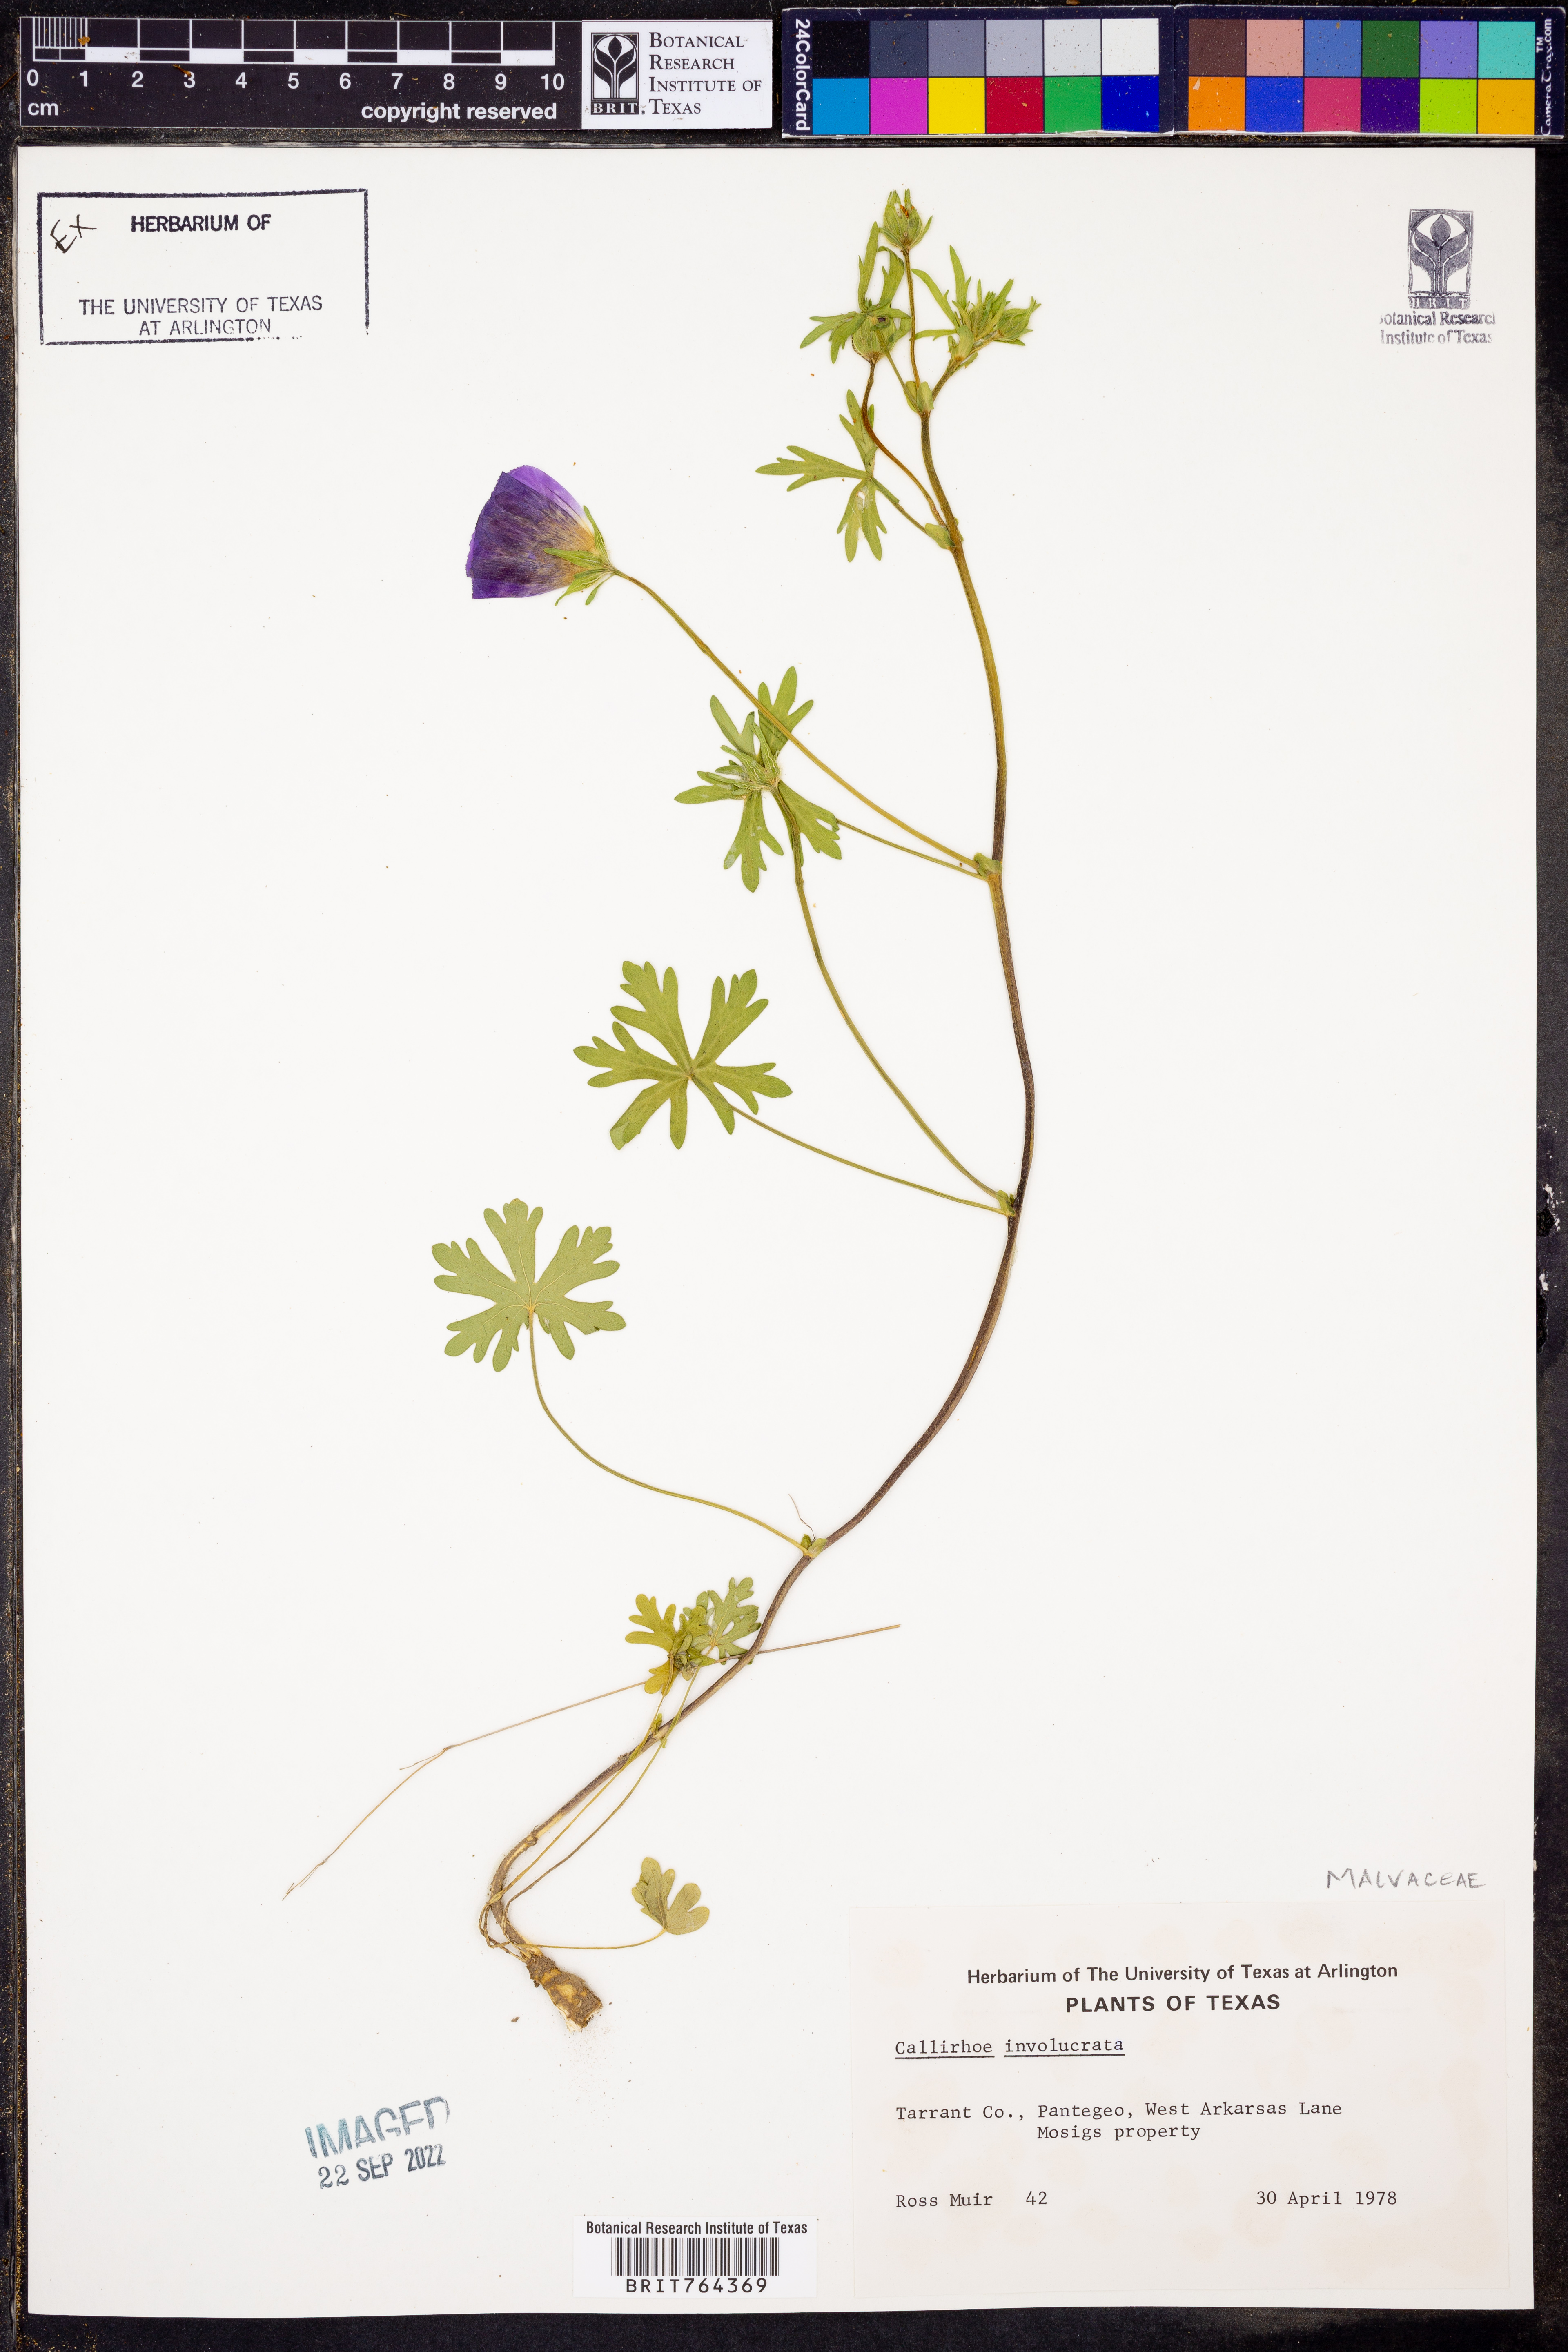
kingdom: Plantae
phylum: Tracheophyta
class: Magnoliopsida
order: Malvales
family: Malvaceae
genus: Callirhoe
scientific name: Callirhoe involucrata
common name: Purple poppy-mallow
